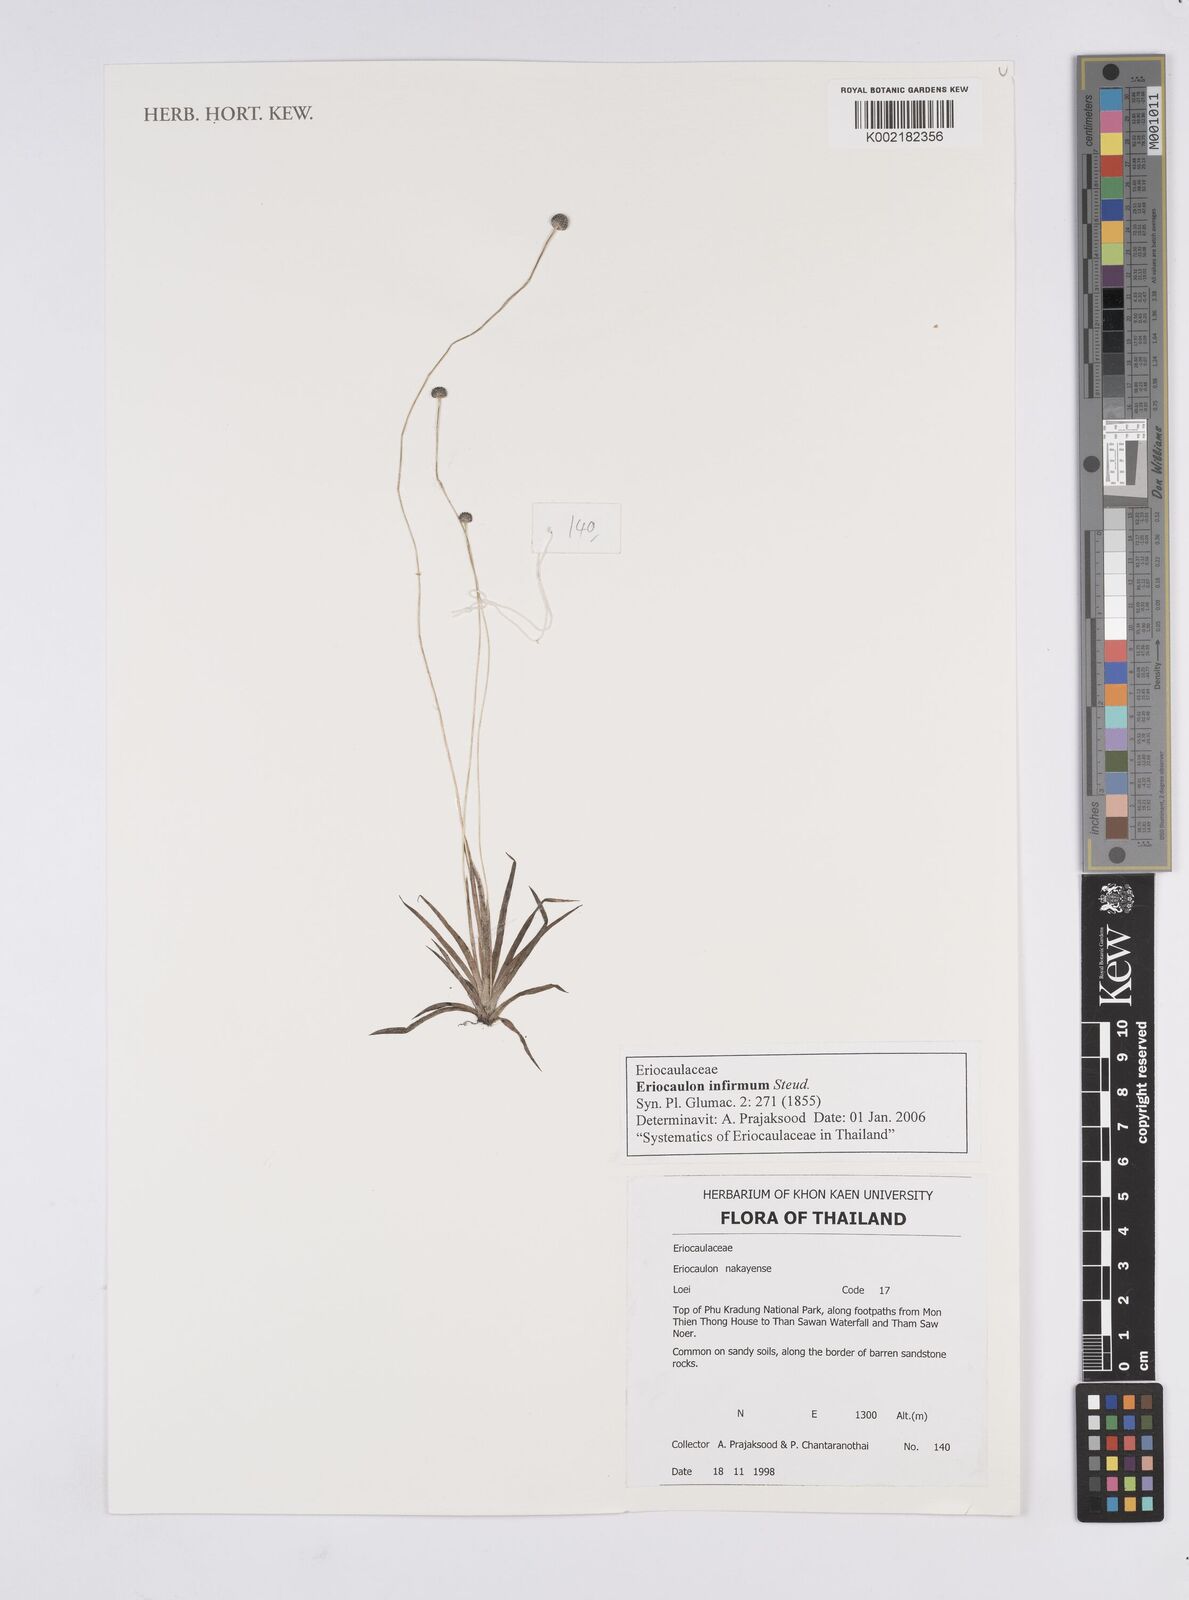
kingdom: Plantae
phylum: Tracheophyta
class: Liliopsida
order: Poales
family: Eriocaulaceae
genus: Eriocaulon
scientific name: Eriocaulon infirmum
